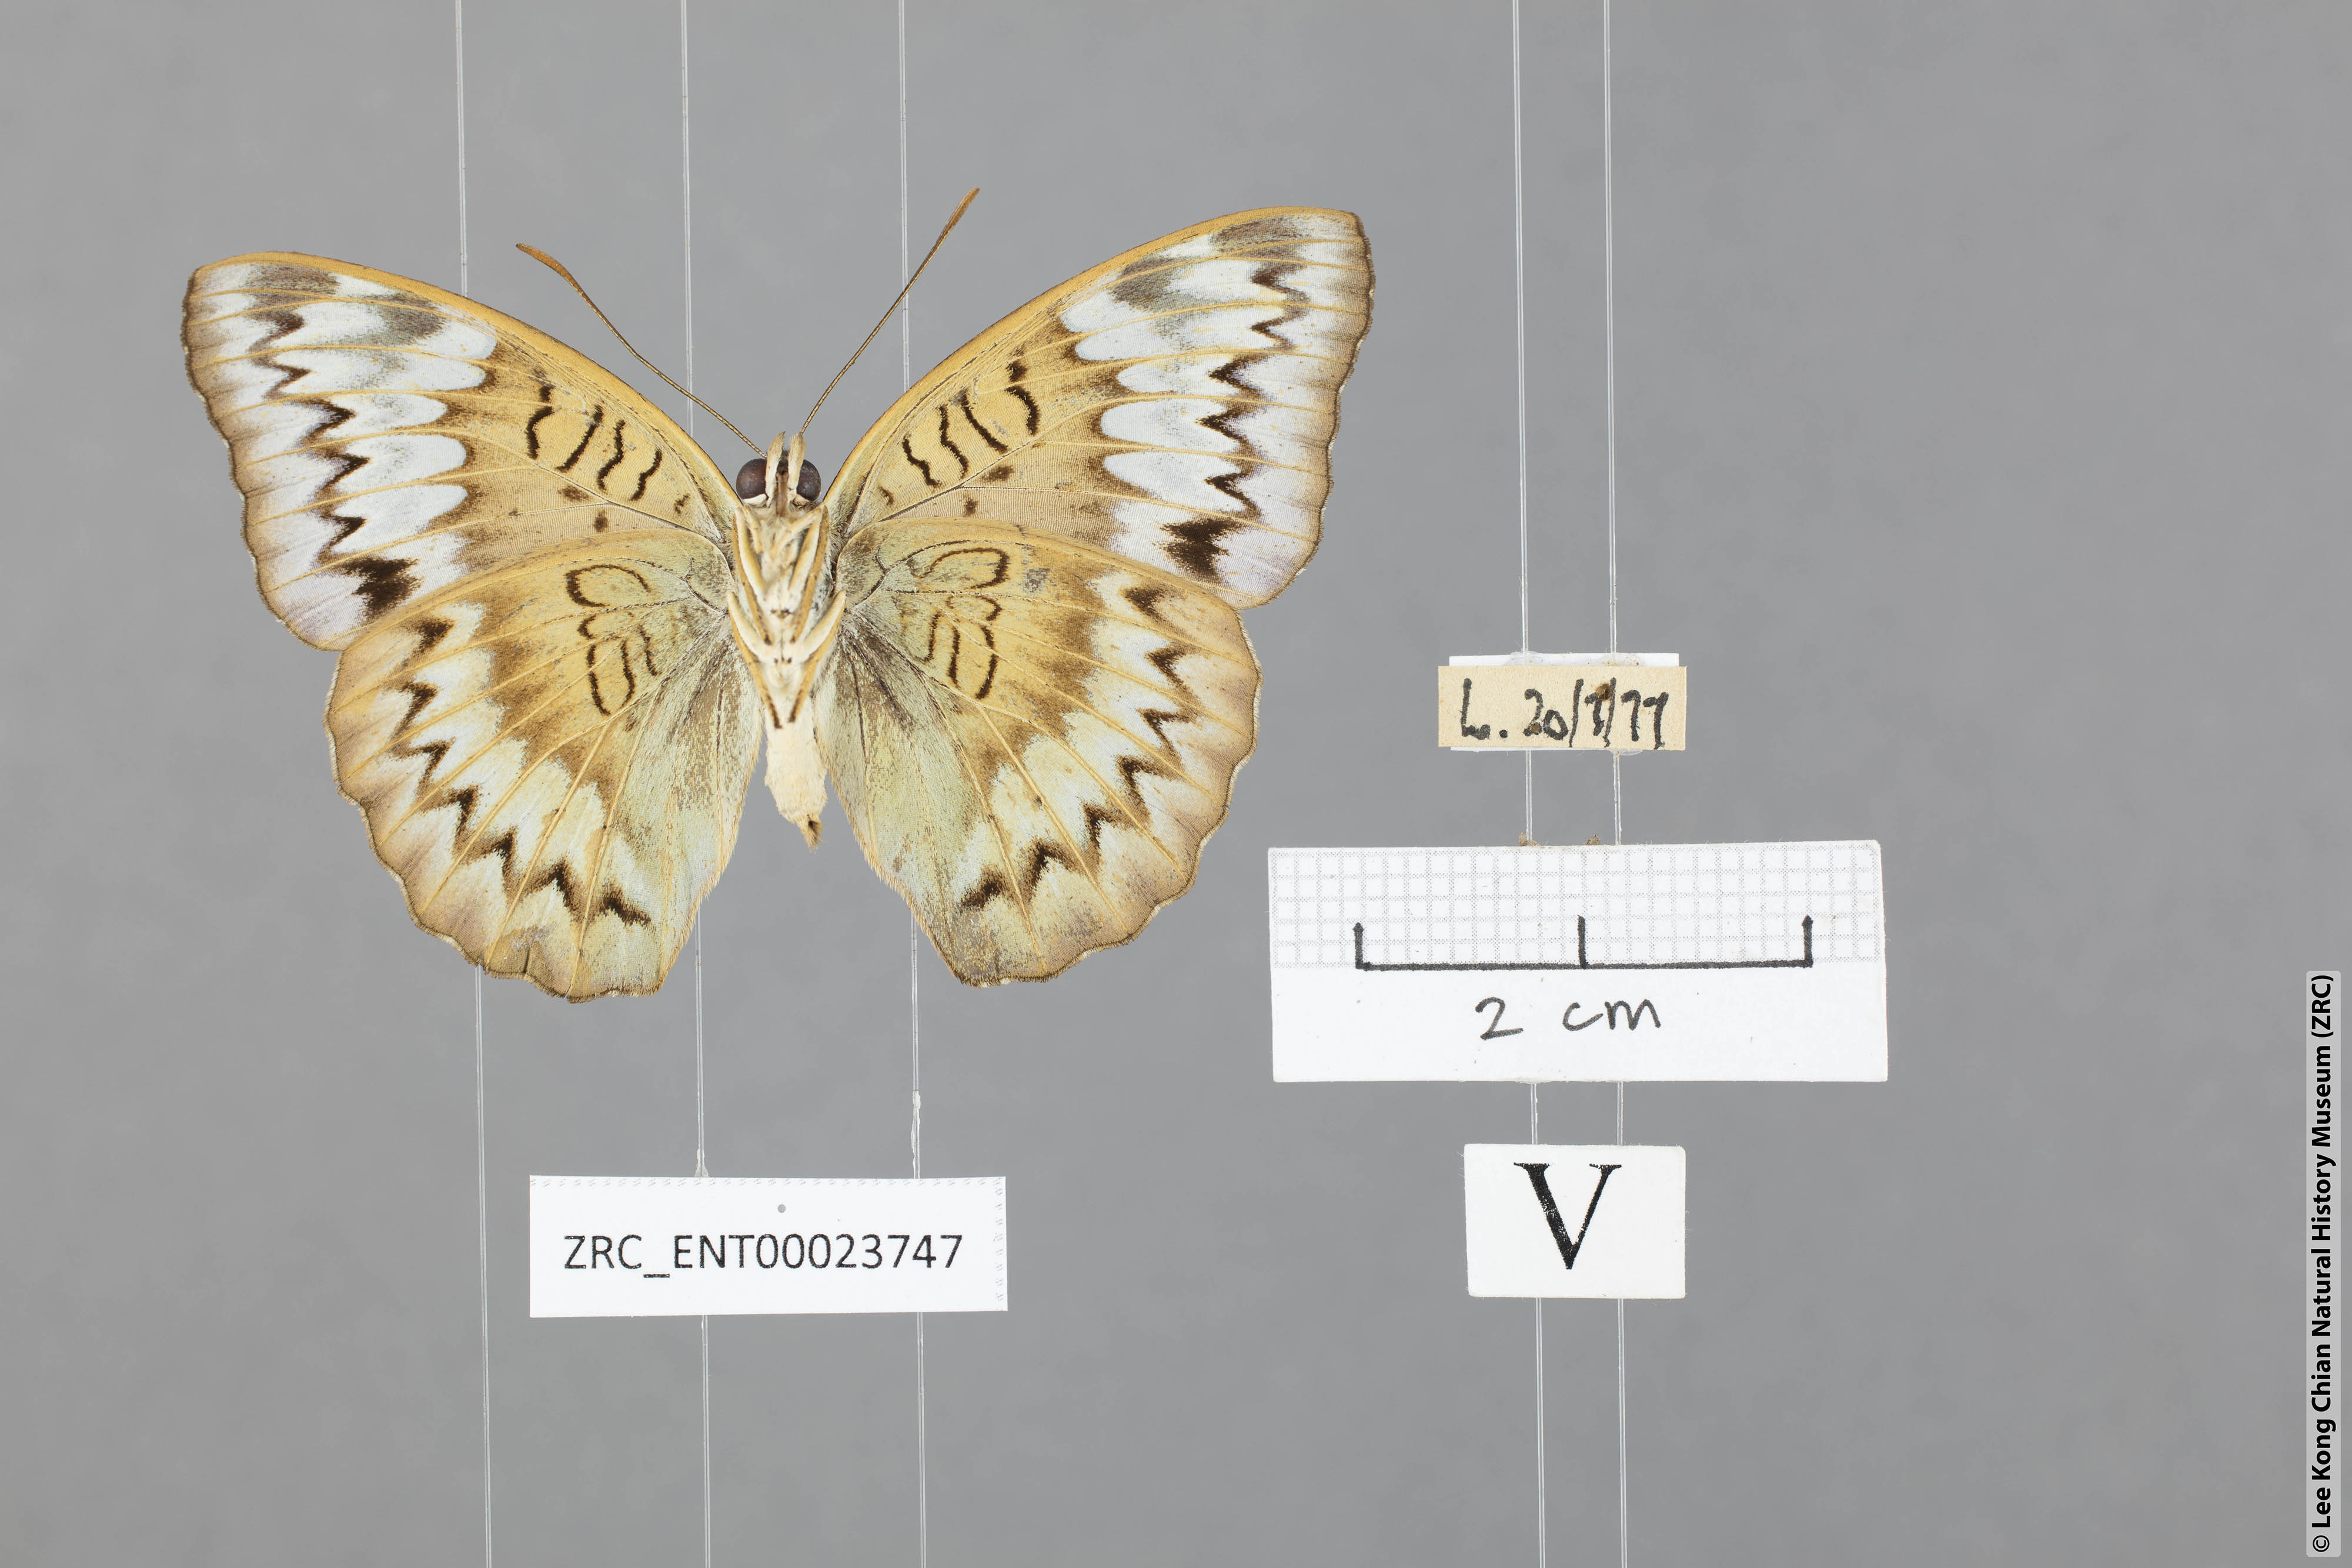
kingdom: Animalia
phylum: Arthropoda
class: Insecta
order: Lepidoptera
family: Nymphalidae
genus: Euthalia
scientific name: Euthalia monina
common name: Powdered baron
